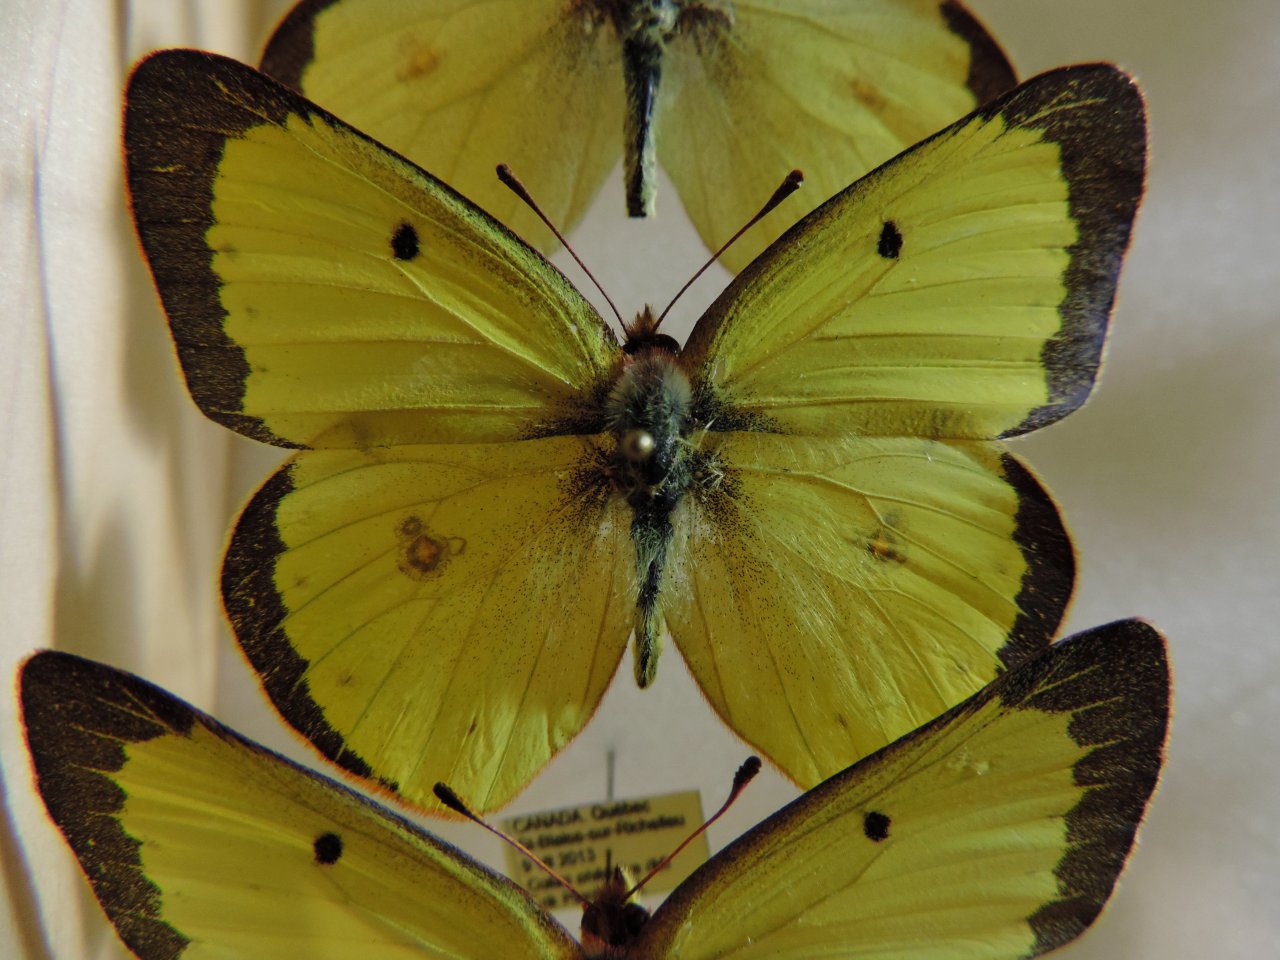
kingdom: Animalia
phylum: Arthropoda
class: Insecta
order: Lepidoptera
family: Pieridae
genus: Colias
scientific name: Colias philodice
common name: Clouded Sulphur
